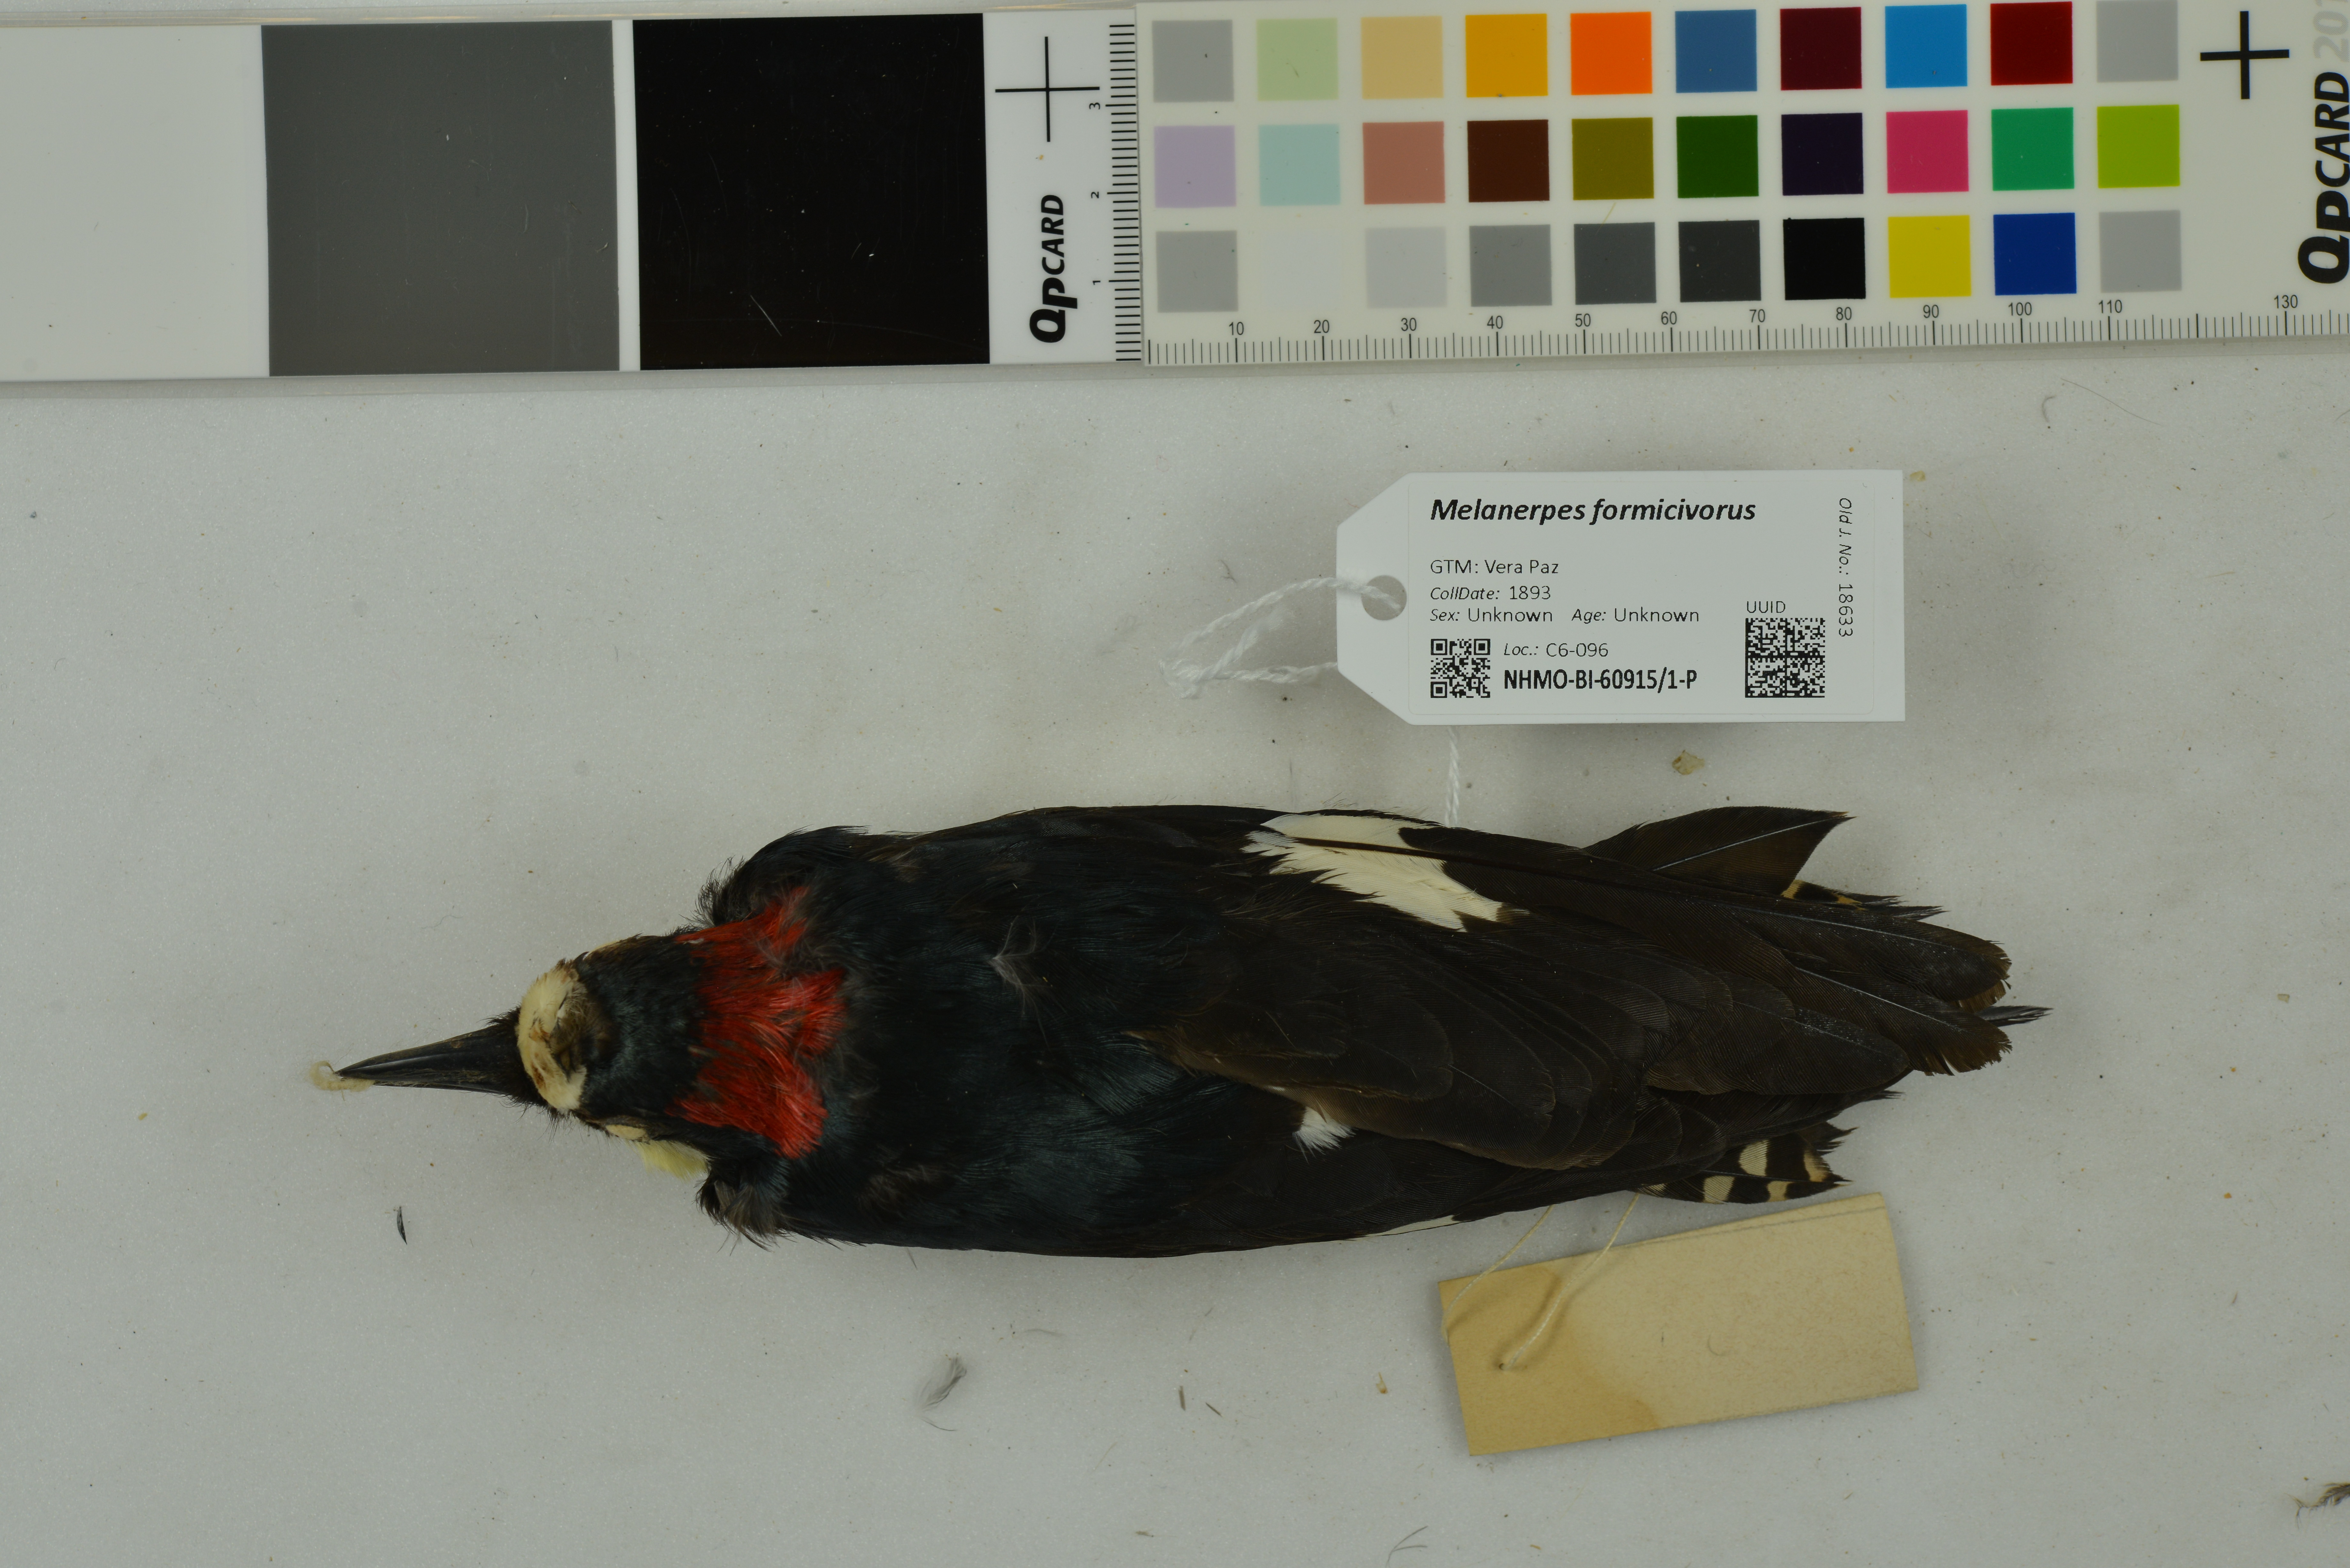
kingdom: Animalia
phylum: Chordata
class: Aves
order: Piciformes
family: Picidae
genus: Melanerpes
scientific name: Melanerpes formicivorus
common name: Acorn woodpecker
